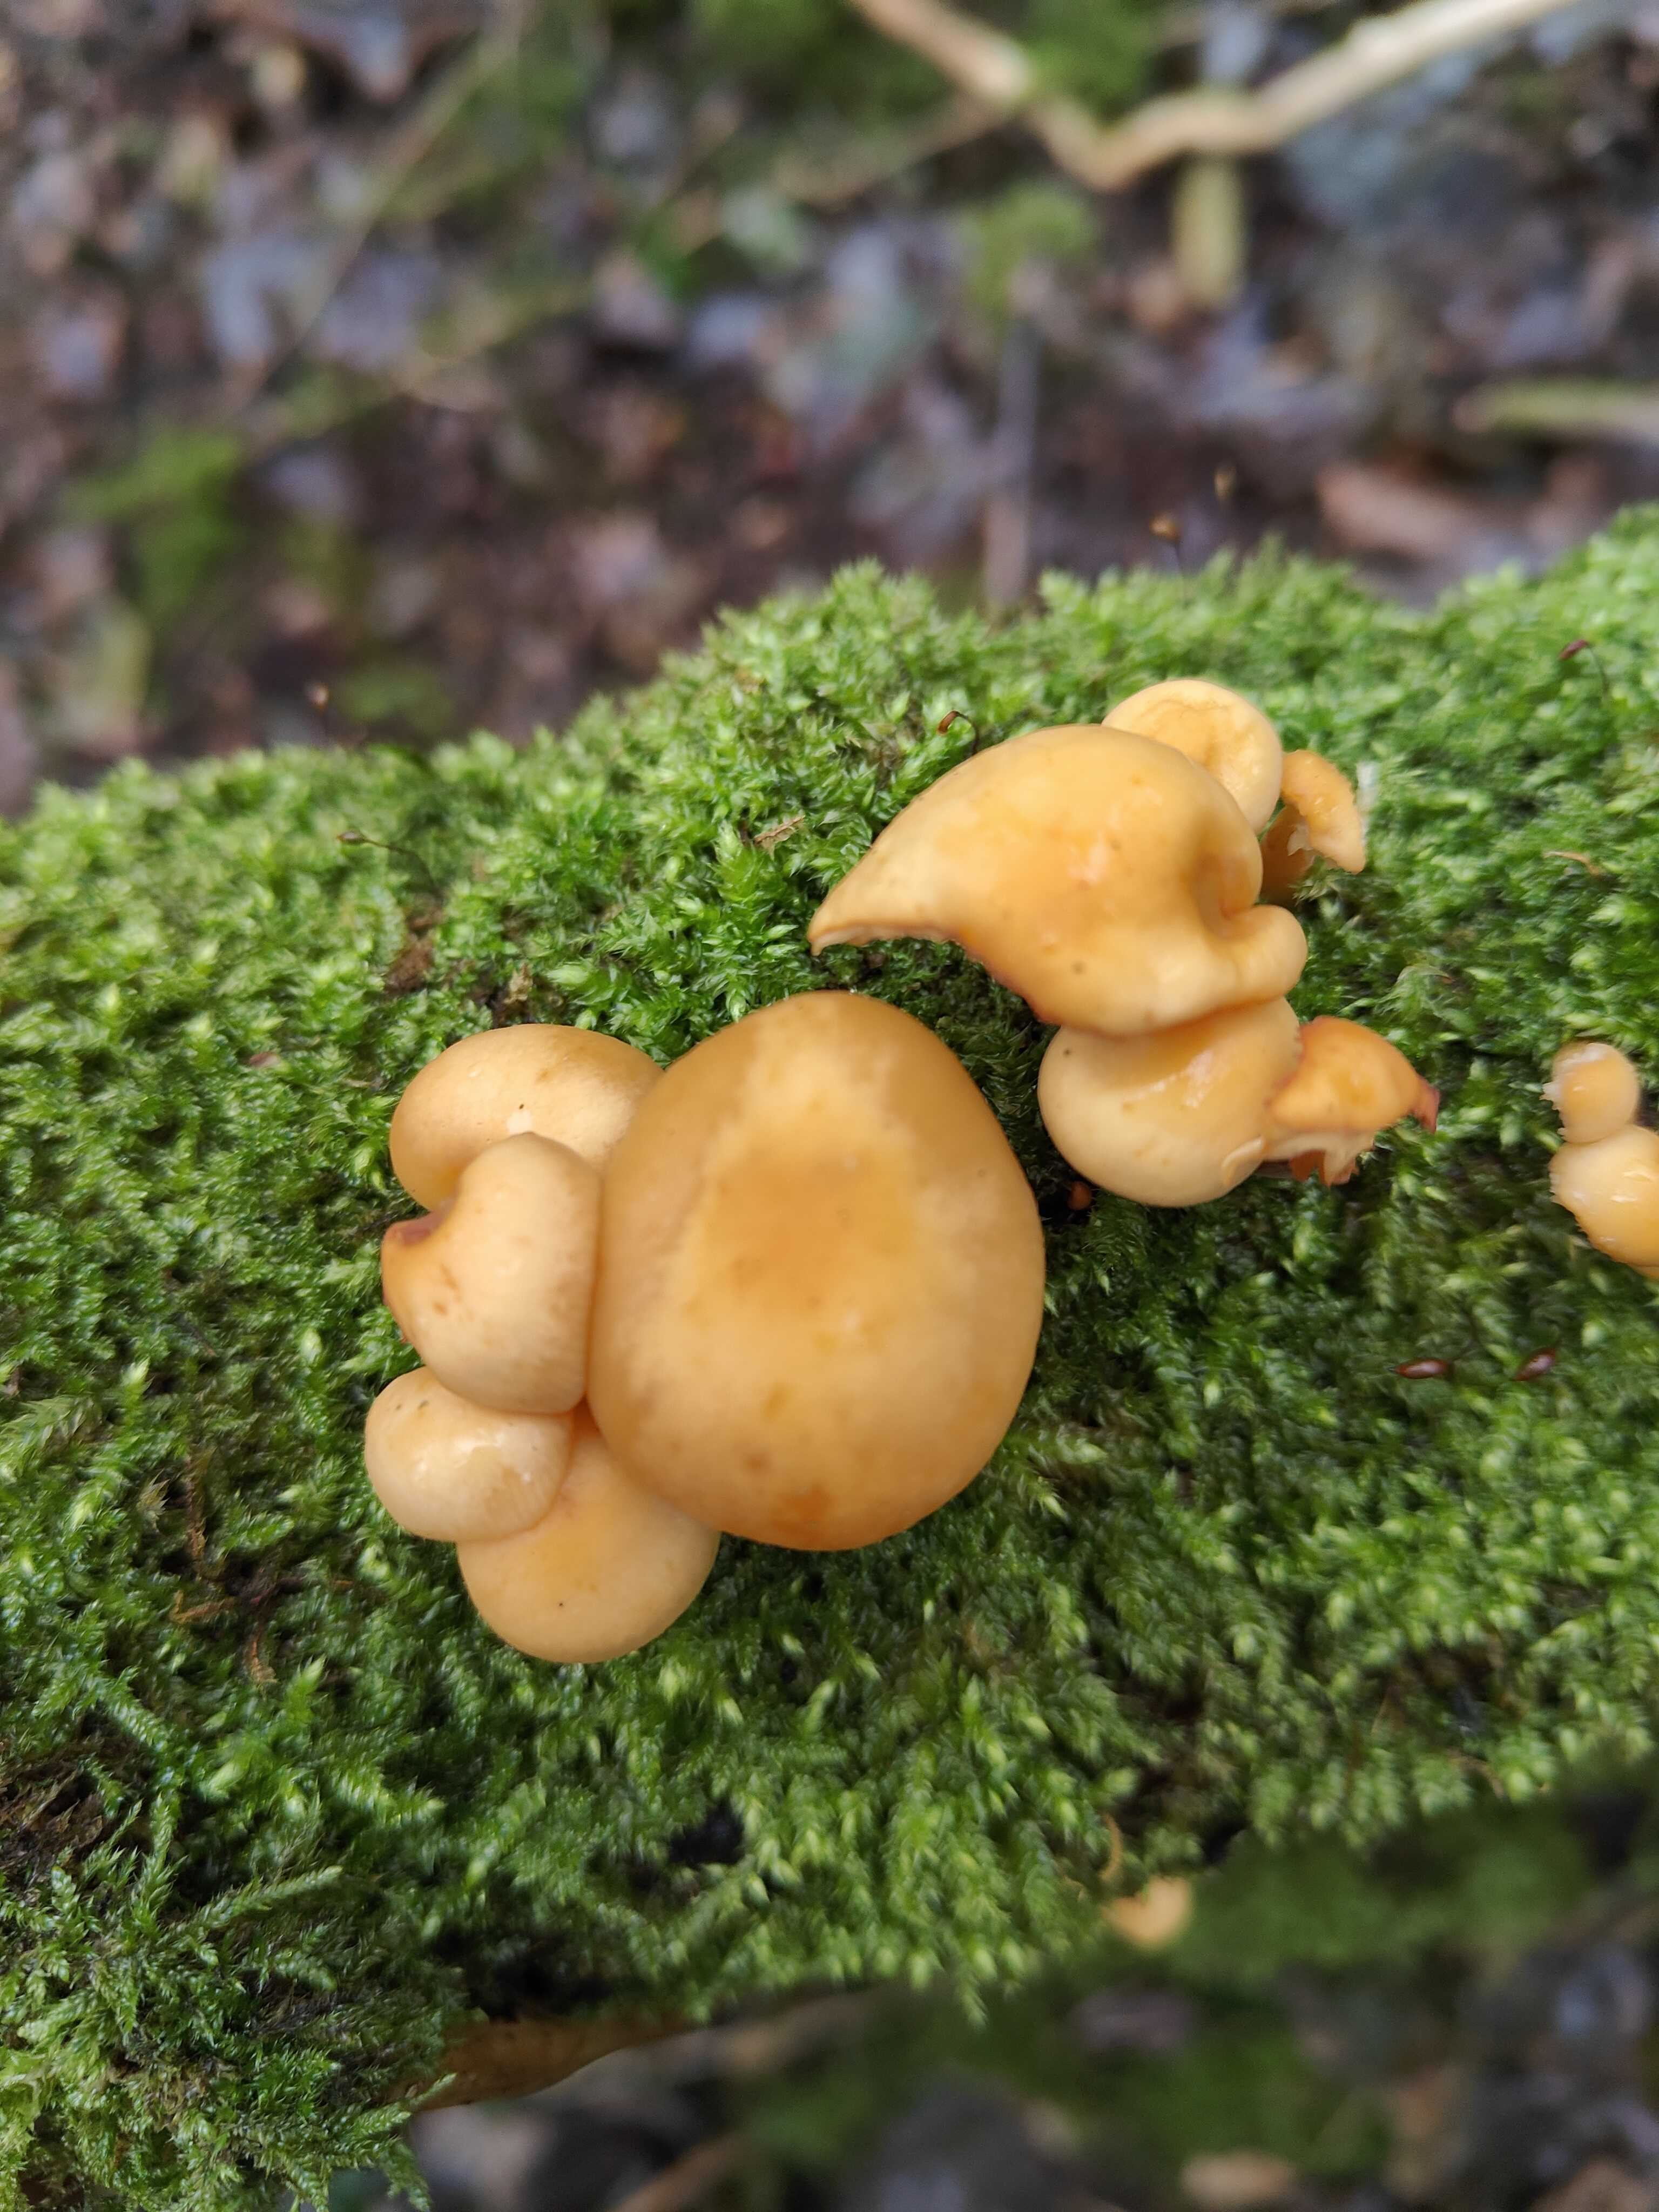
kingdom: Fungi
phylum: Basidiomycota
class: Agaricomycetes
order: Agaricales
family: Physalacriaceae
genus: Flammulina
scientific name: Flammulina
